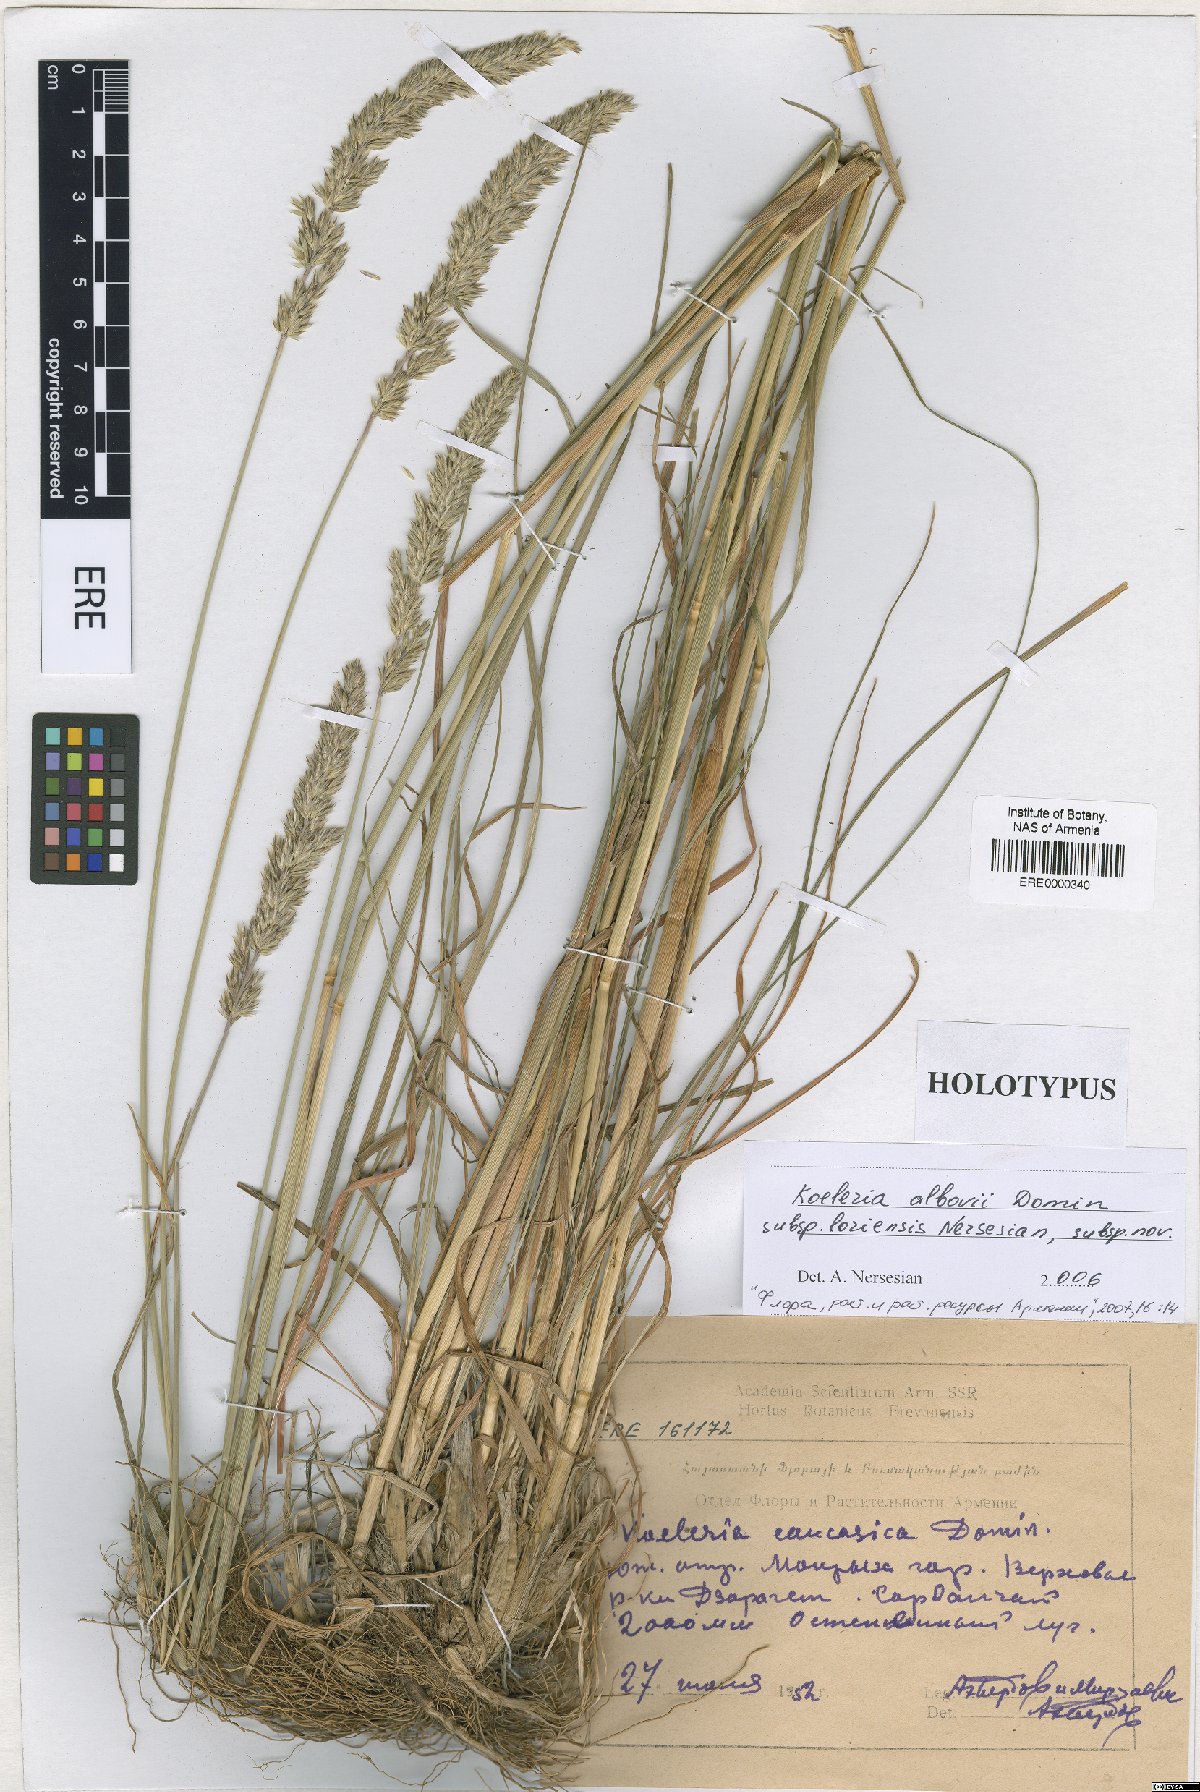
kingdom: Plantae
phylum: Tracheophyta
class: Liliopsida
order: Poales
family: Poaceae
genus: Koeleria
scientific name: Koeleria eriostachya
